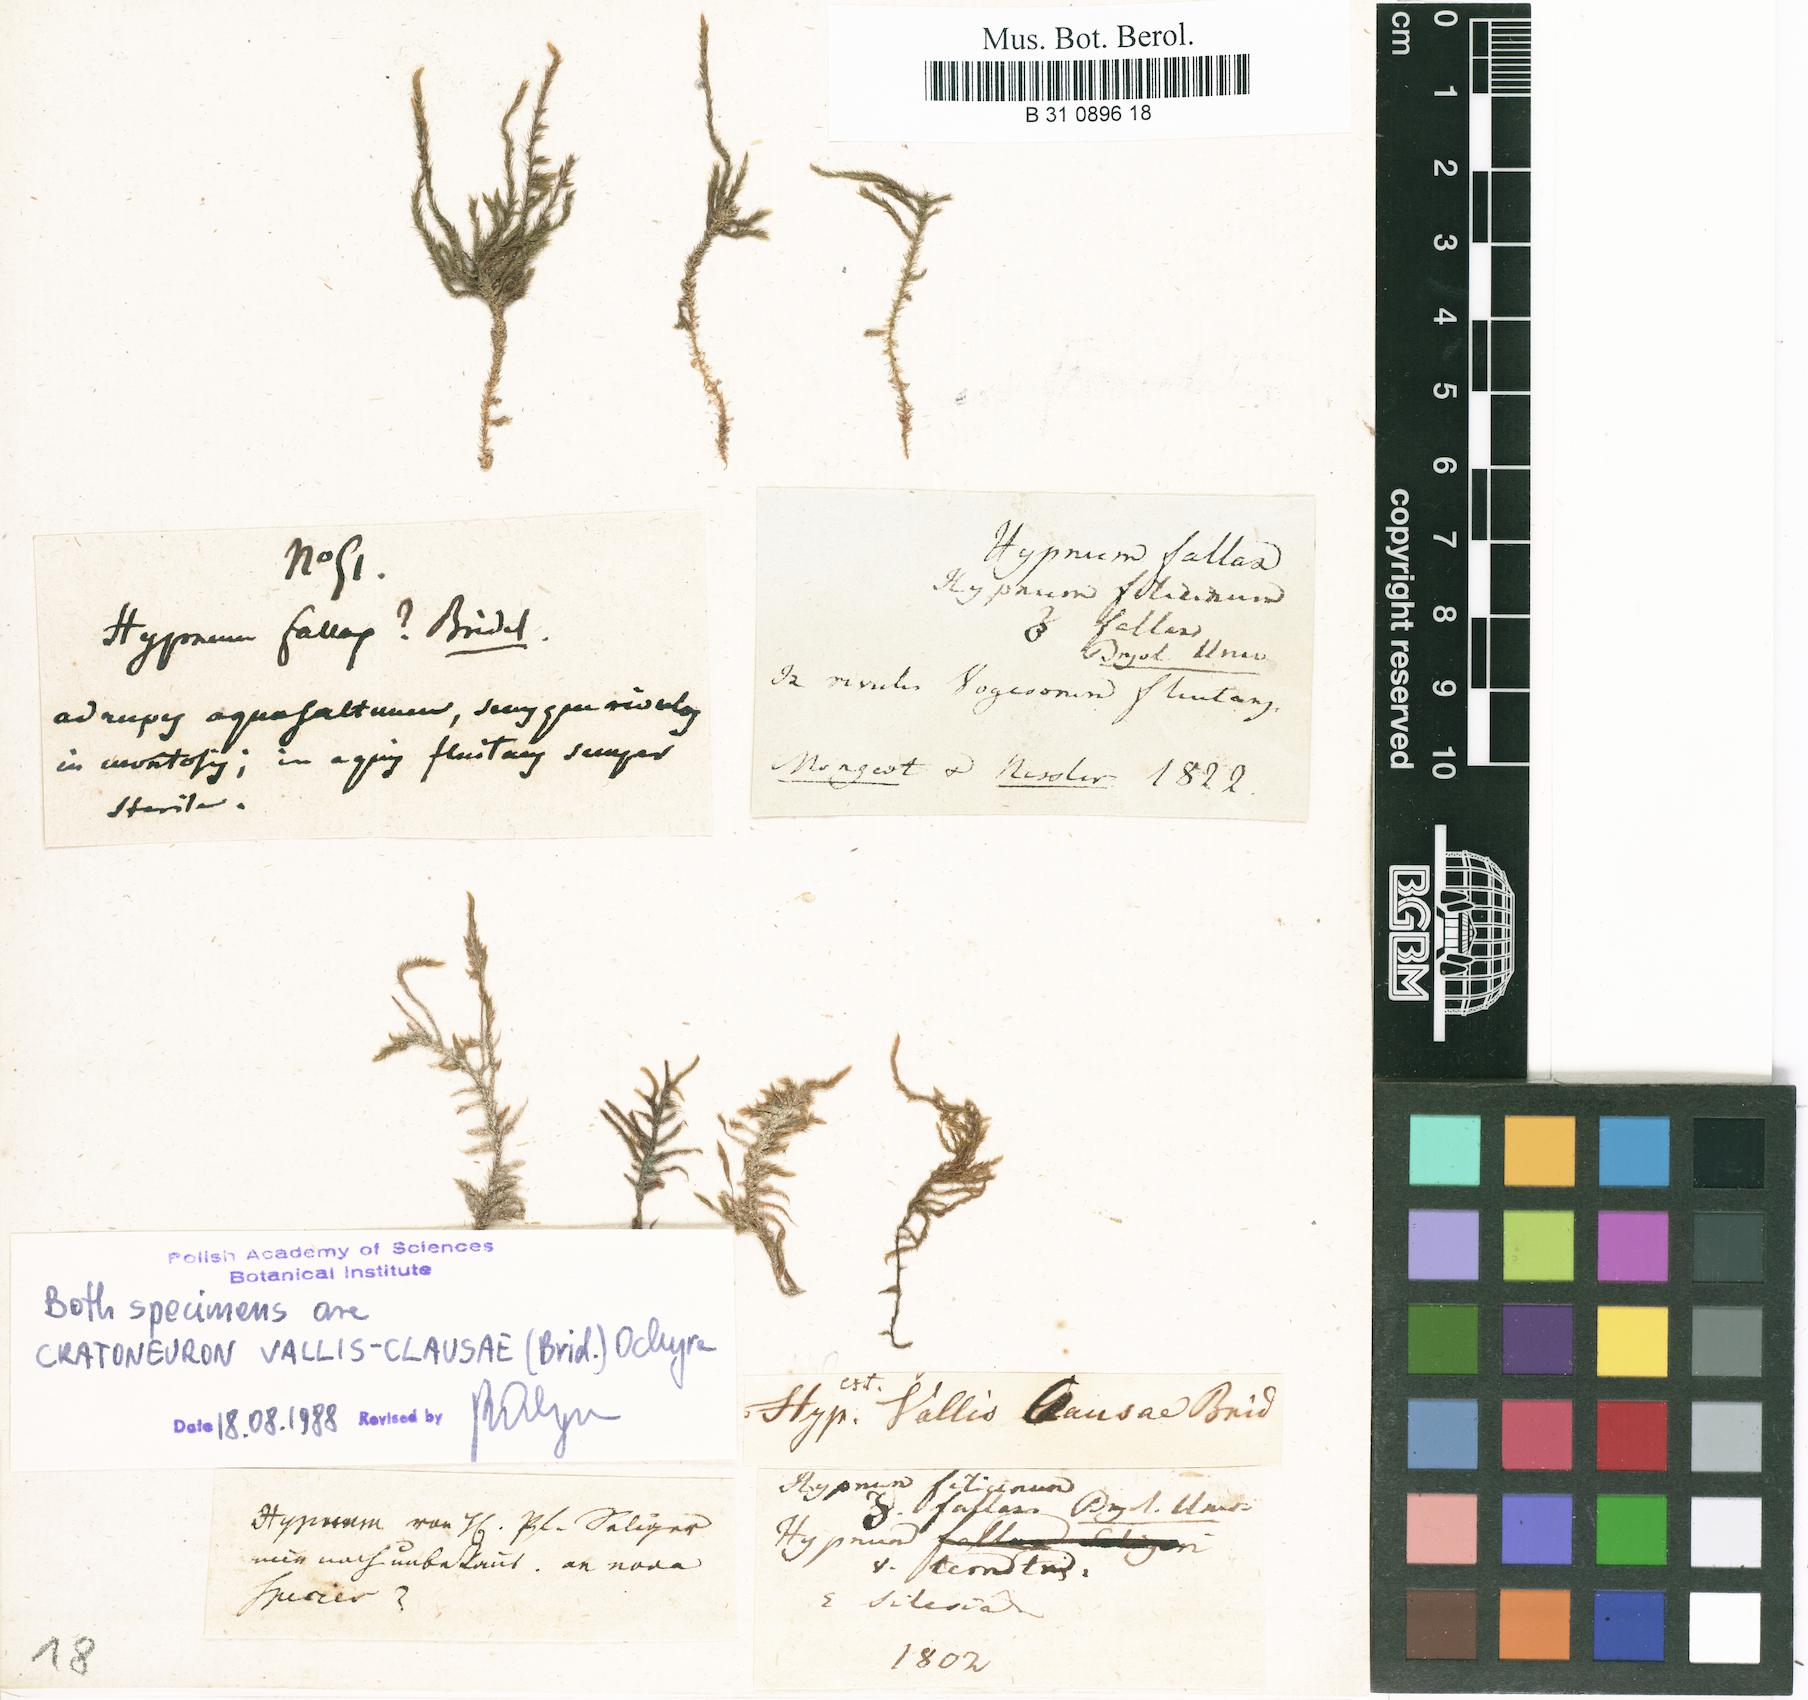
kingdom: Plantae
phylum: Bryophyta
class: Bryopsida
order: Hypnales
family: Amblystegiaceae
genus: Cratoneuron
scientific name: Cratoneuron filicinum
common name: Fern-leaved hook moss
